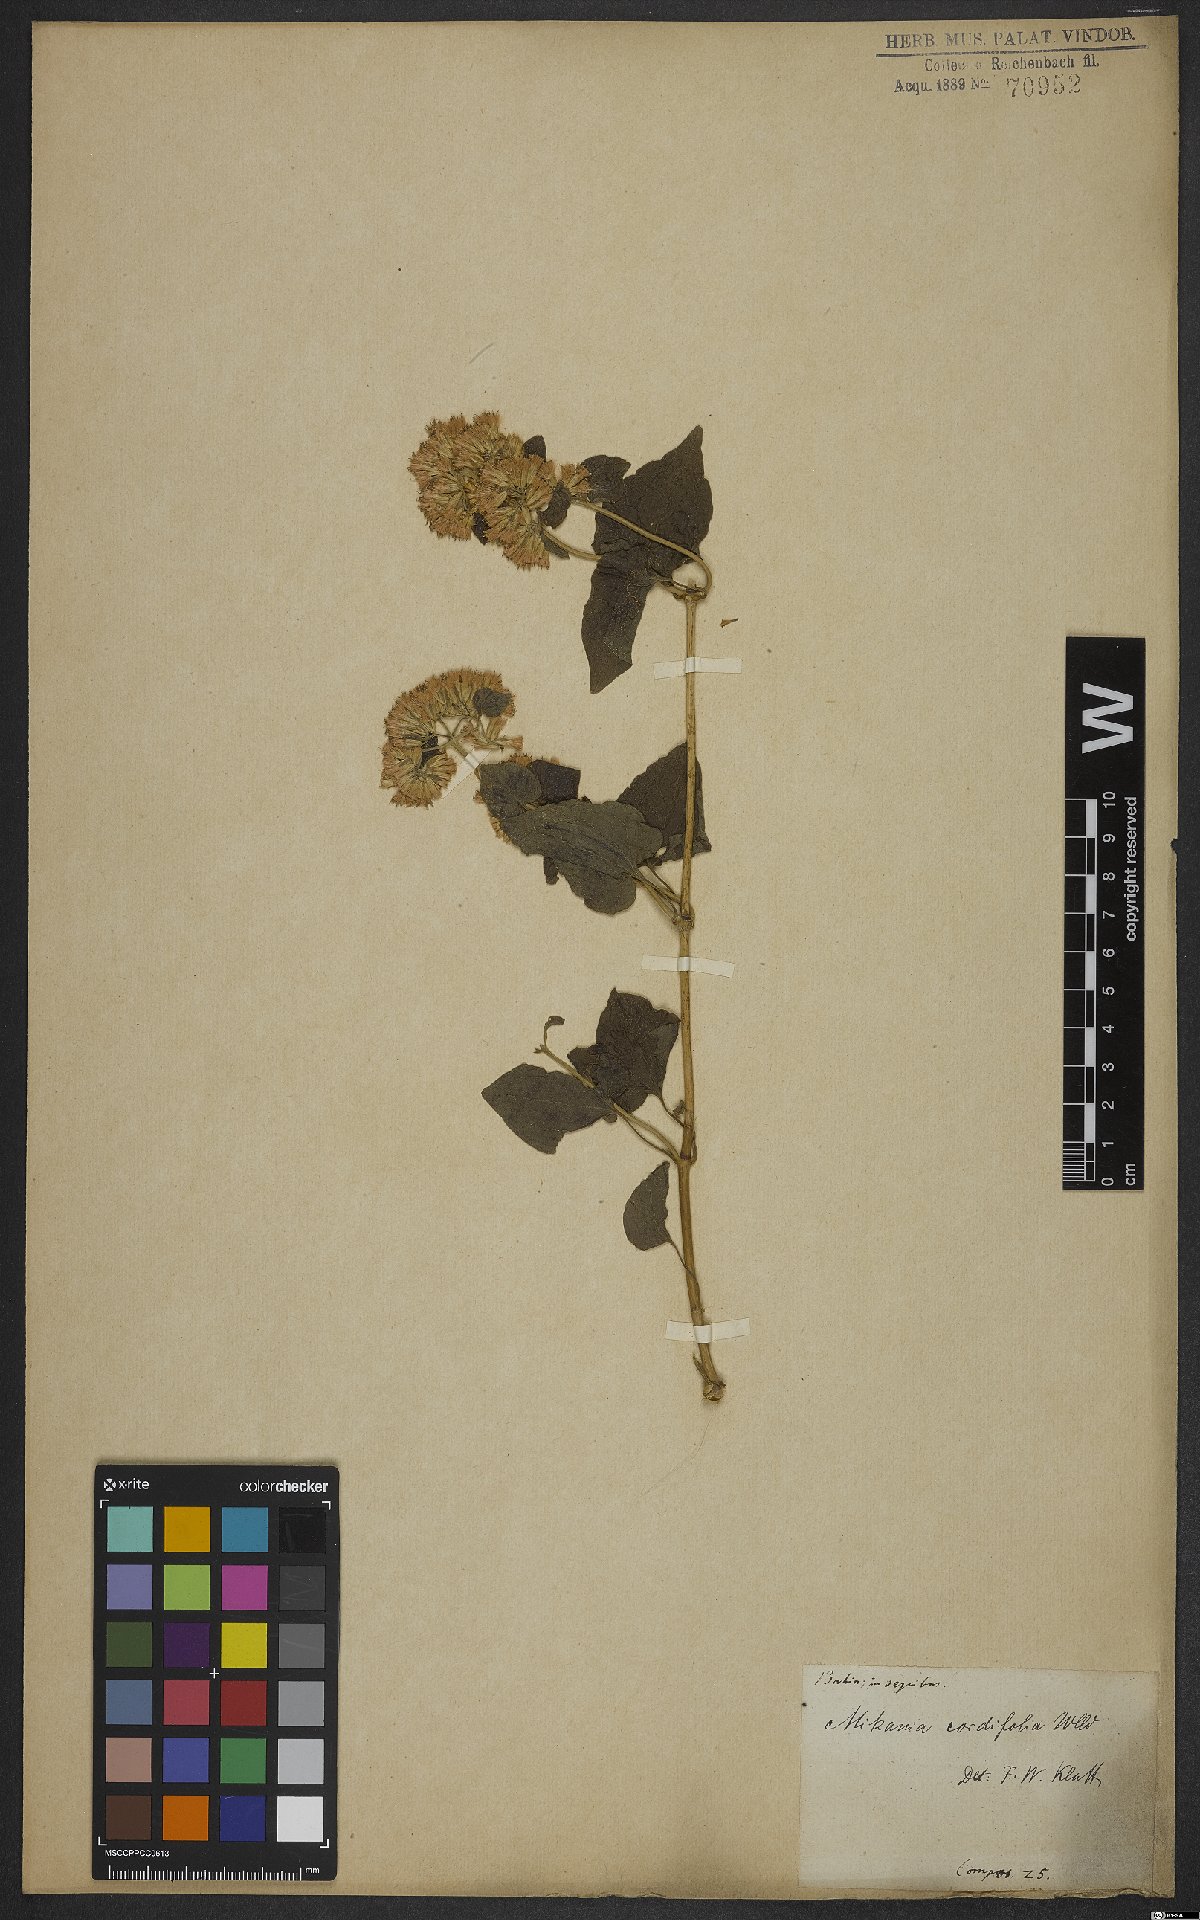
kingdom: Plantae
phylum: Tracheophyta
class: Magnoliopsida
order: Asterales
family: Asteraceae
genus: Mikania
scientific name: Mikania cordifolia
